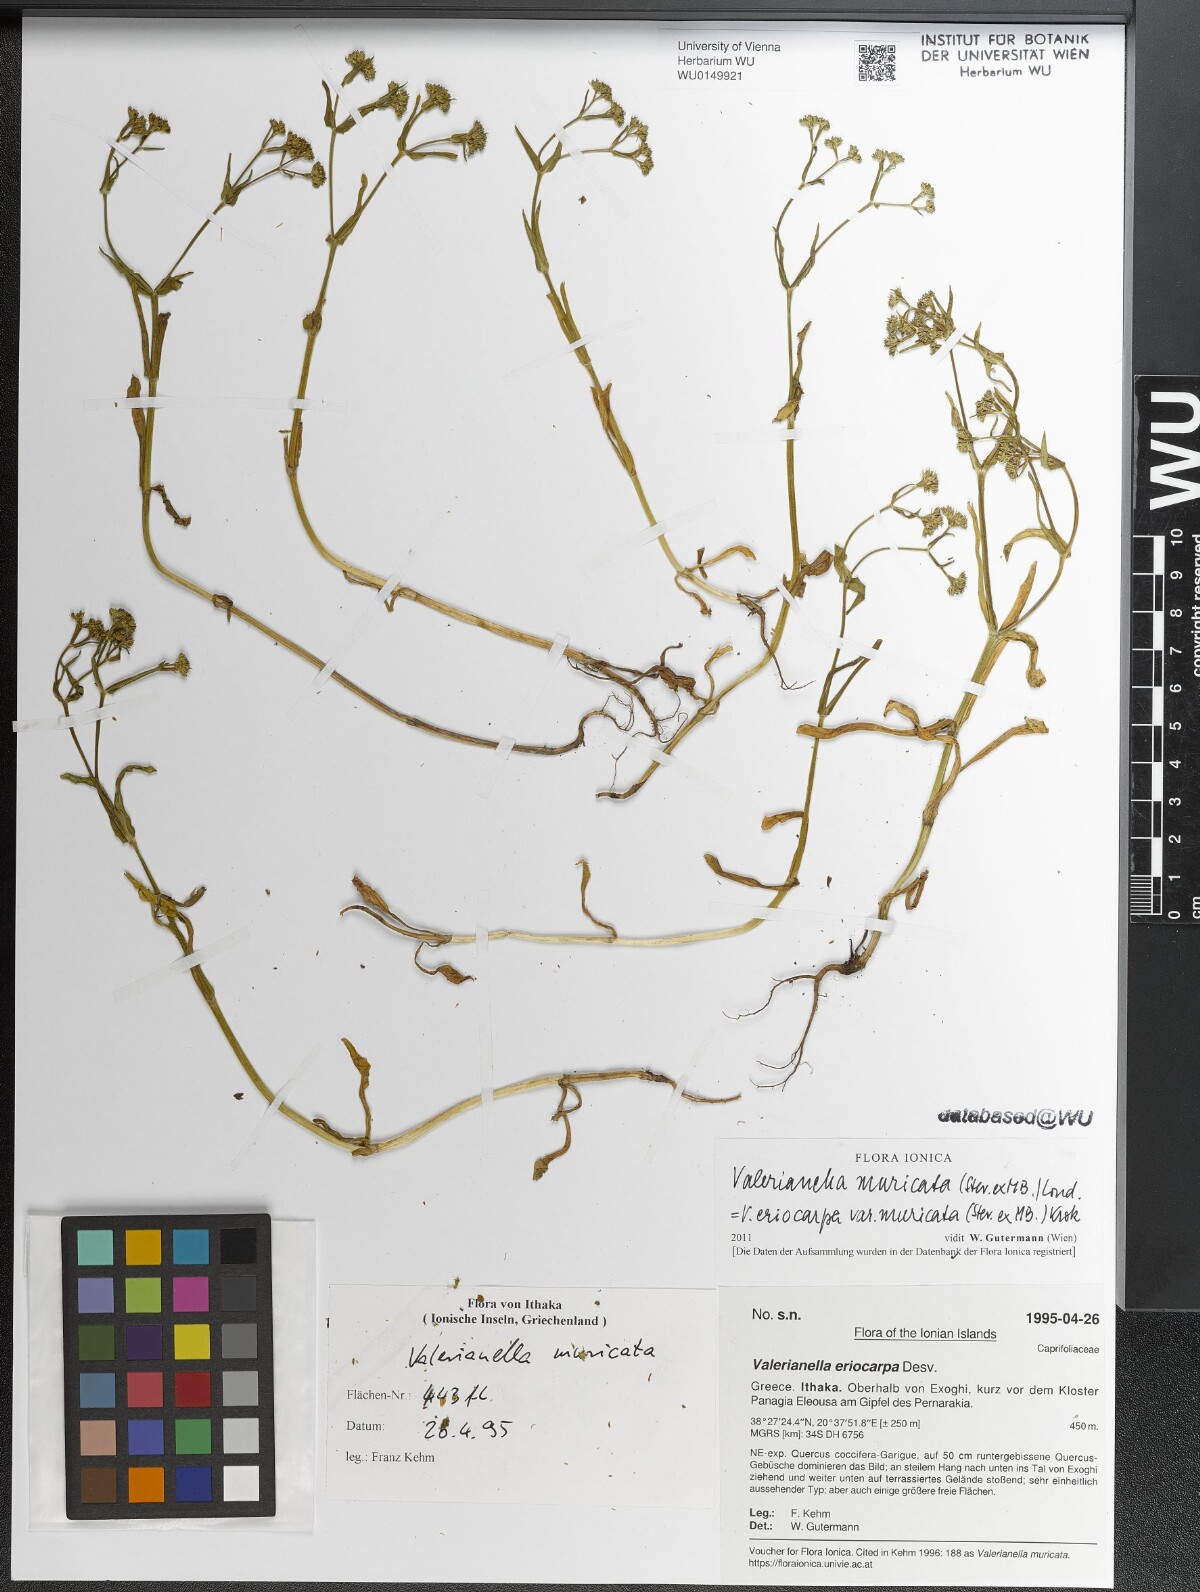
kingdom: Plantae
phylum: Tracheophyta
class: Magnoliopsida
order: Dipsacales
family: Caprifoliaceae
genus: Valerianella
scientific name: Valerianella eriocarpa
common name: Hairy-fruited cornsalad
